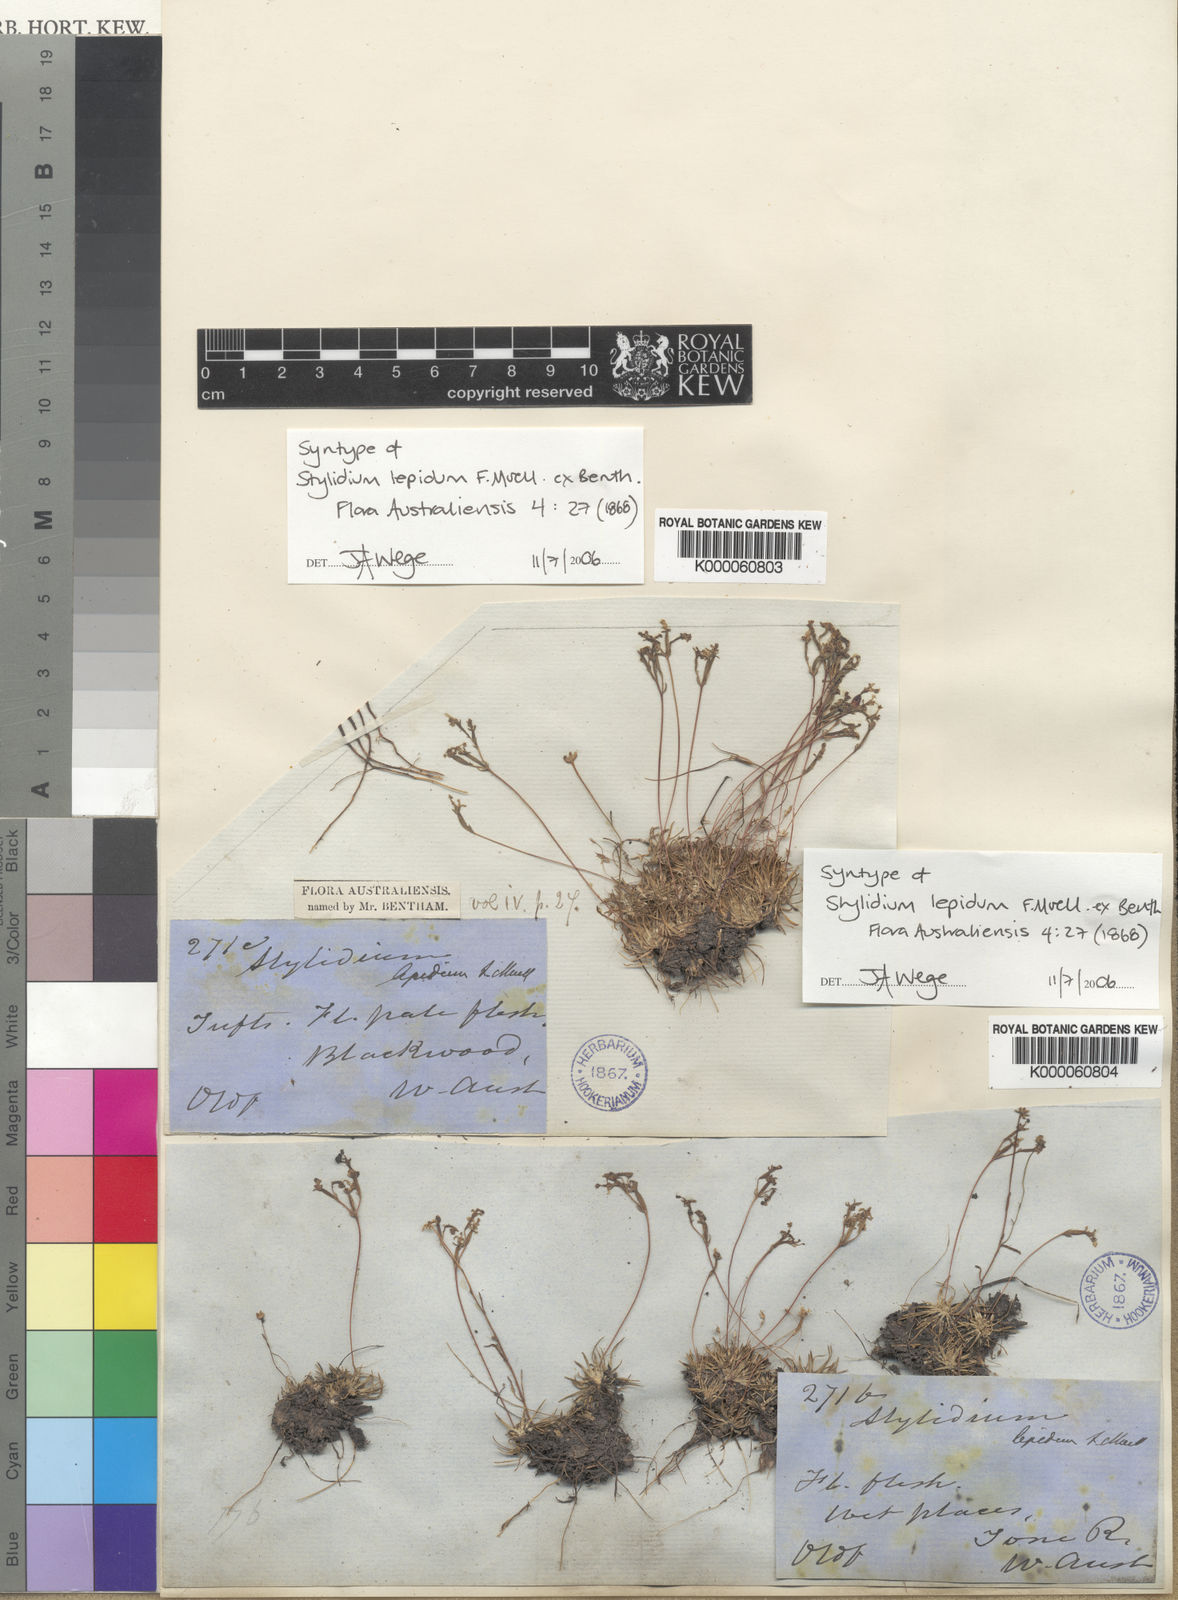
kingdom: Plantae
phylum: Tracheophyta
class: Magnoliopsida
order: Asterales
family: Stylidiaceae
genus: Stylidium
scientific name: Stylidium lepidum
